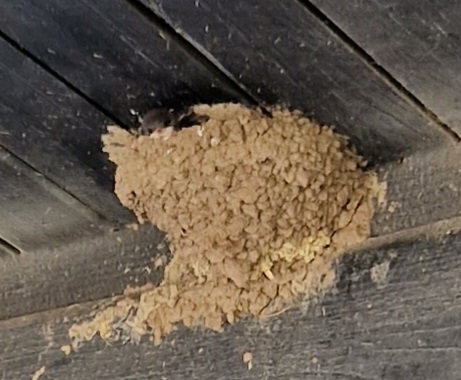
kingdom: Animalia
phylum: Chordata
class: Aves
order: Passeriformes
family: Hirundinidae
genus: Delichon
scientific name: Delichon urbicum
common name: Bysvale
